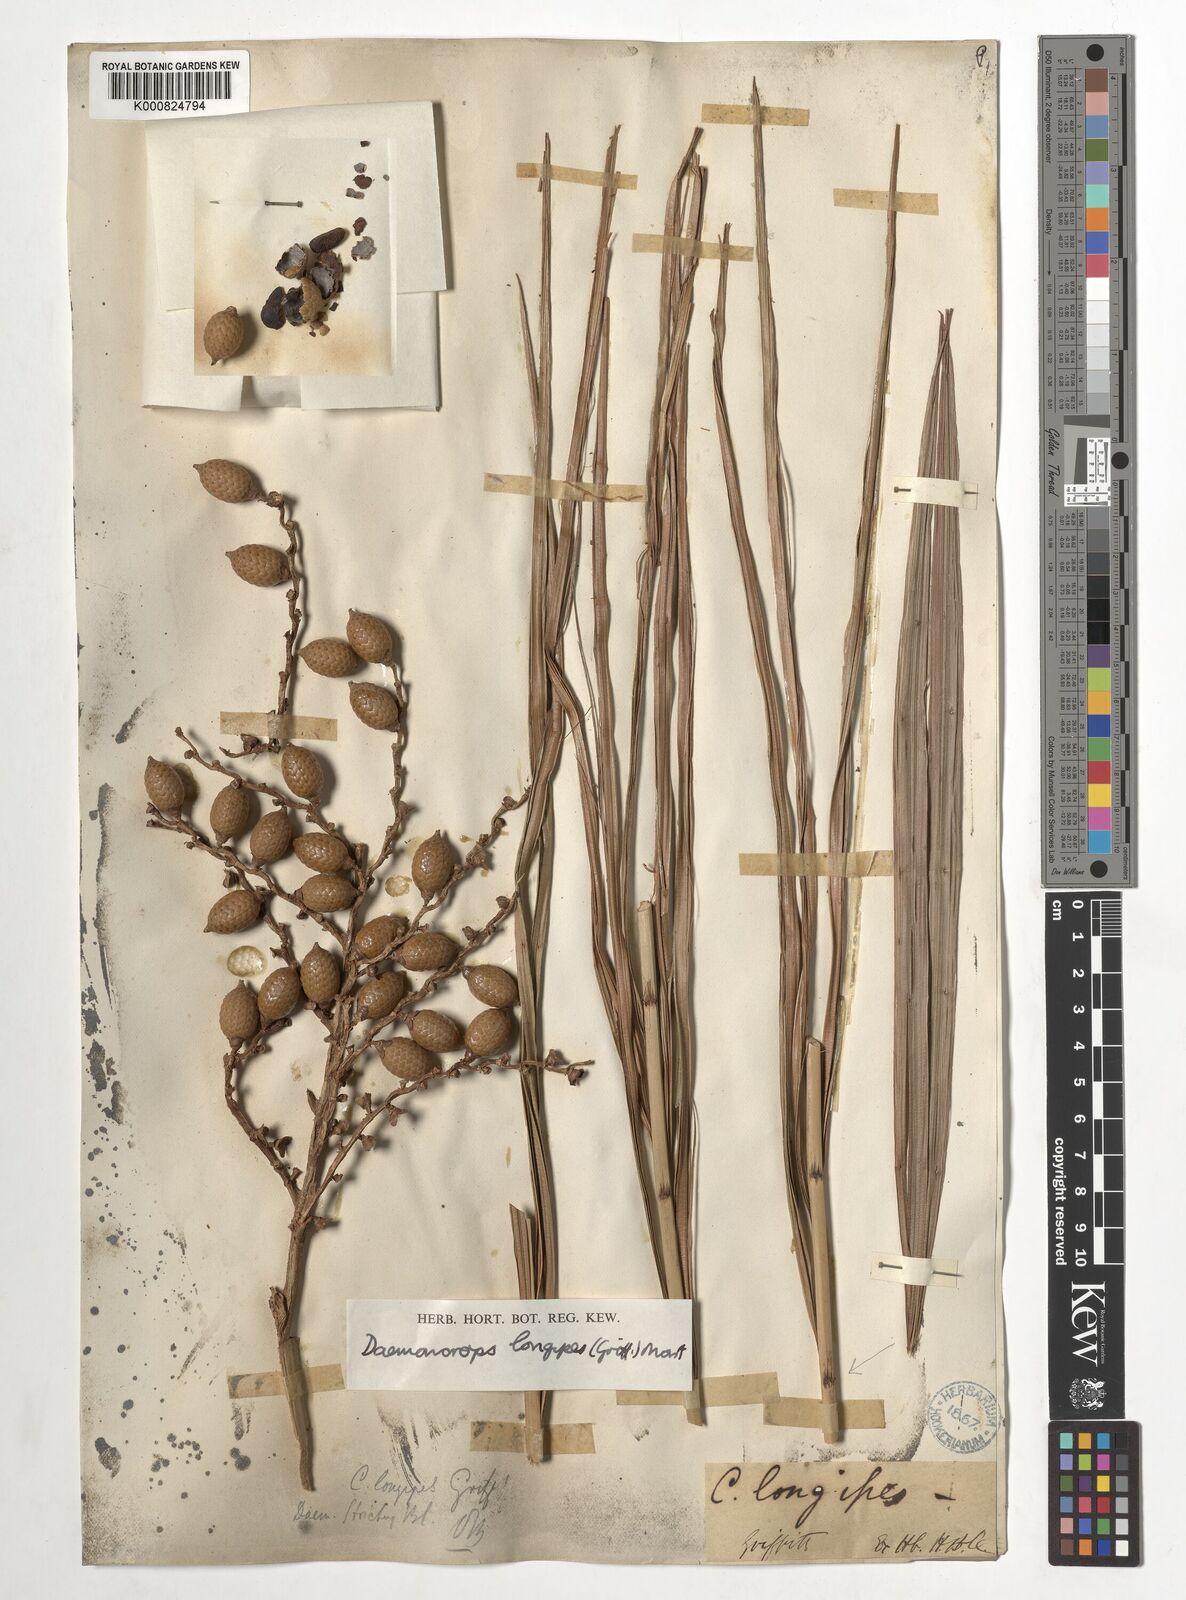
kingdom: Plantae
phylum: Tracheophyta
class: Liliopsida
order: Arecales
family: Arecaceae
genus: Calamus
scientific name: Calamus longipes
